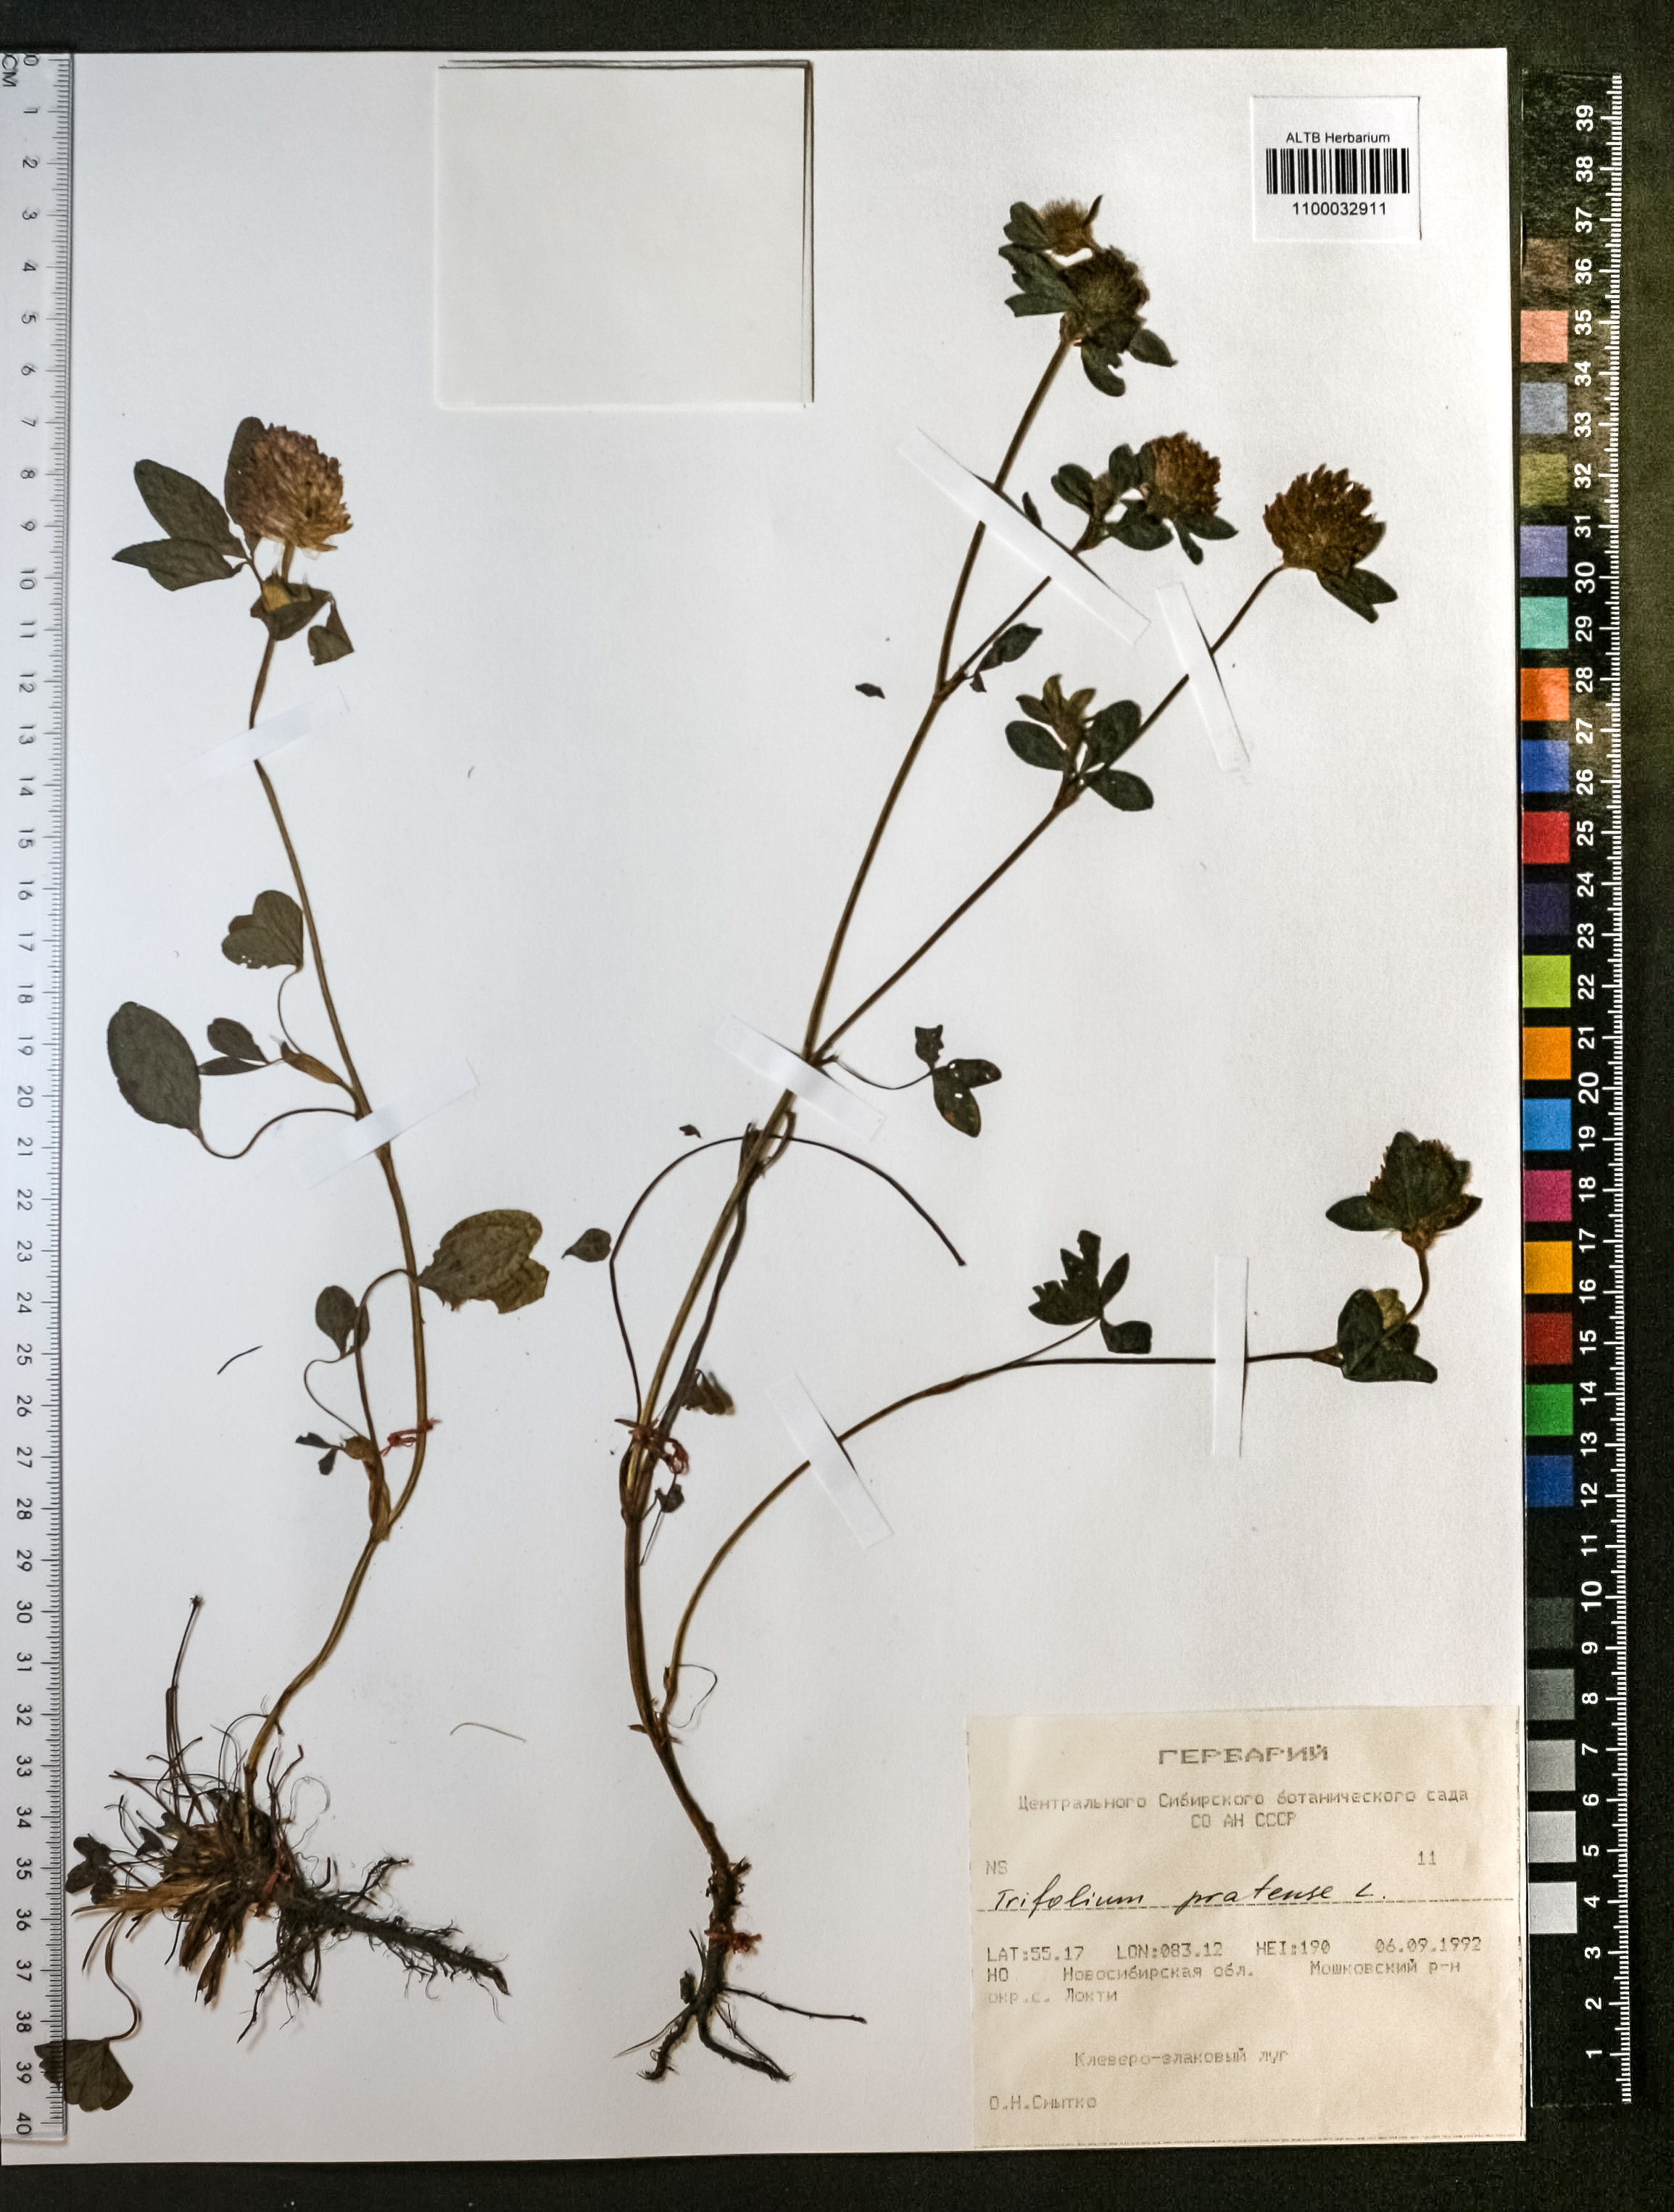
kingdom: Plantae
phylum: Tracheophyta
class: Magnoliopsida
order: Fabales
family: Fabaceae
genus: Trifolium
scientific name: Trifolium pratense
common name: Red clover
